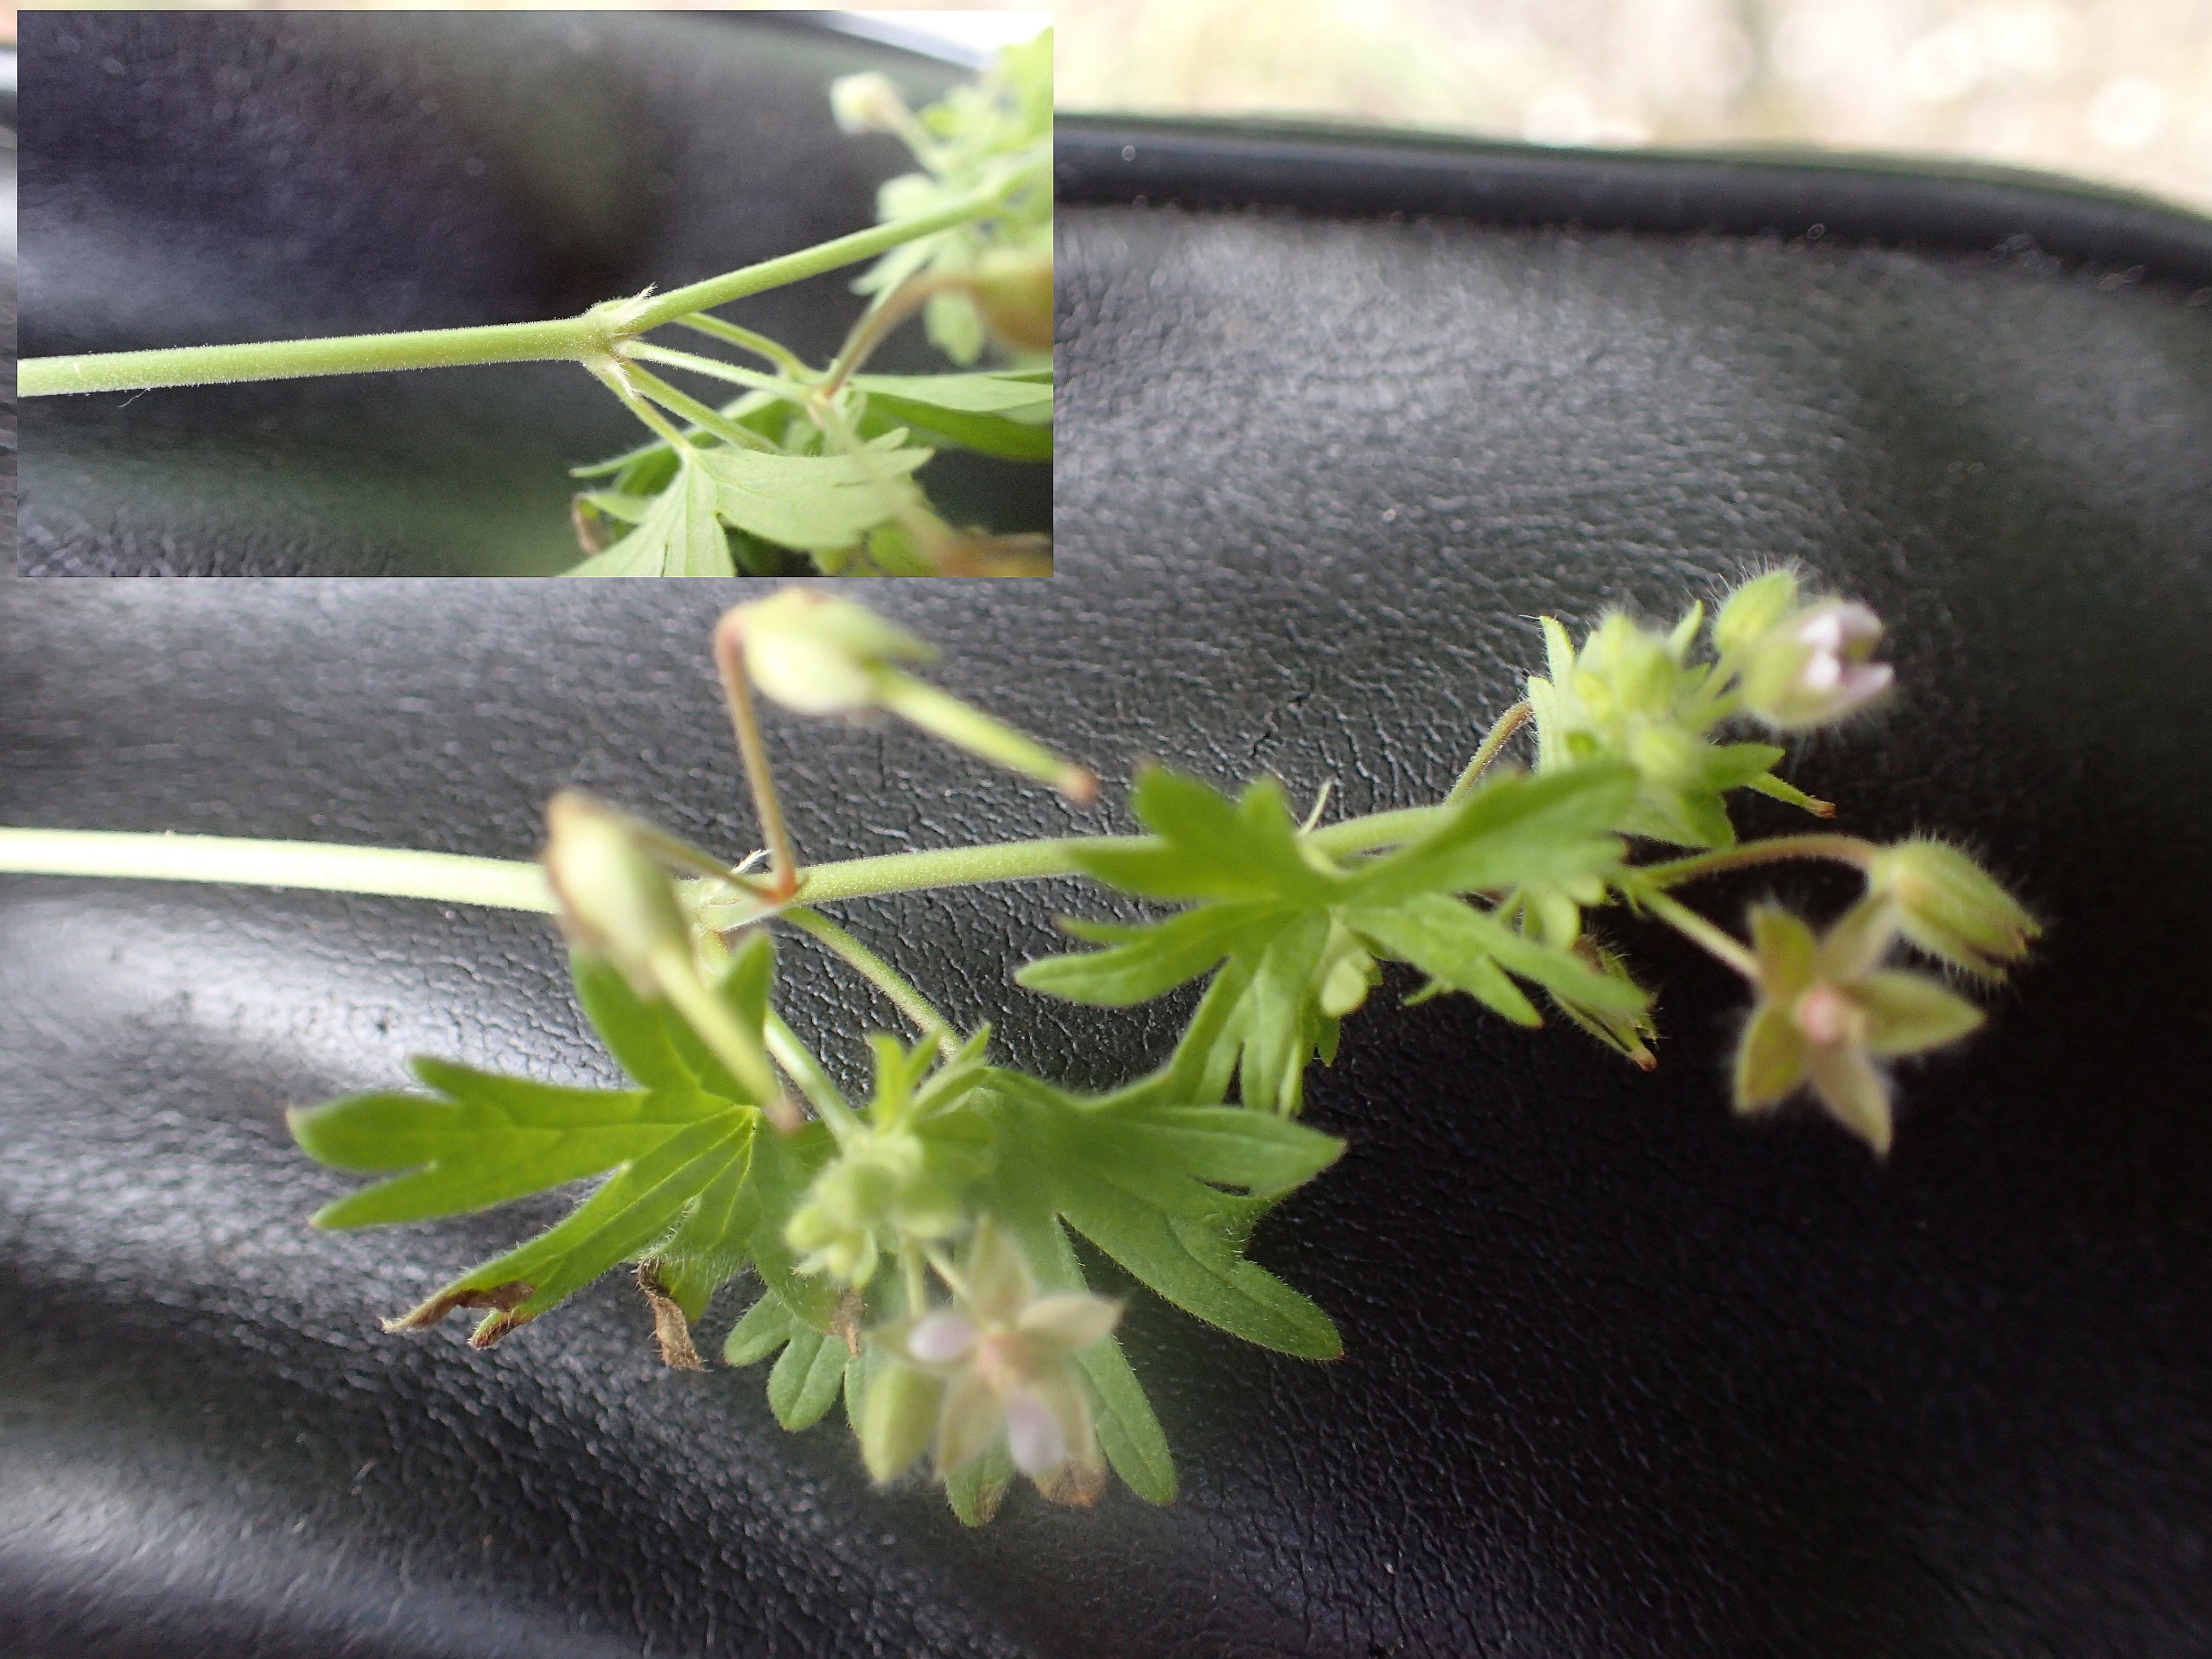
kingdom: Plantae
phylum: Tracheophyta
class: Magnoliopsida
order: Geraniales
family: Geraniaceae
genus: Geranium
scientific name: Geranium pusillum
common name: Liden storkenæb
